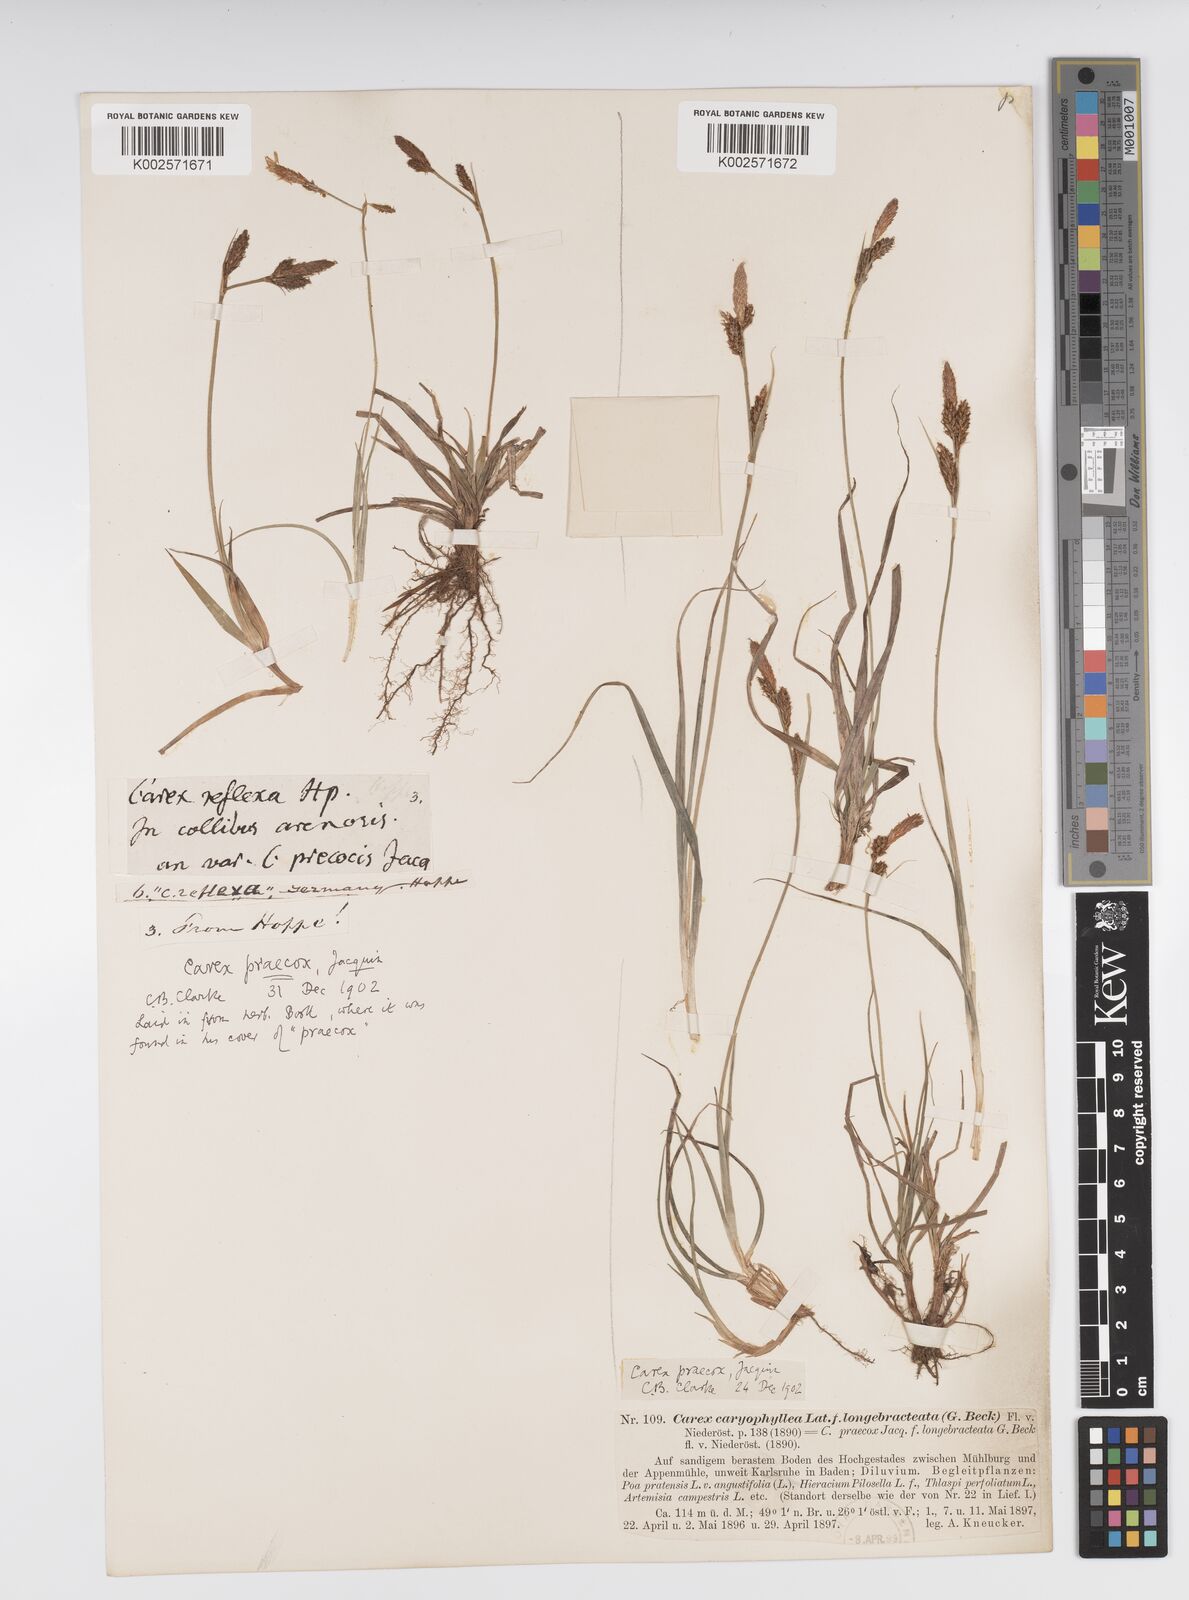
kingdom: Plantae
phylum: Tracheophyta
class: Liliopsida
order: Poales
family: Cyperaceae
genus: Carex
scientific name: Carex caryophyllea
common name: Spring sedge
